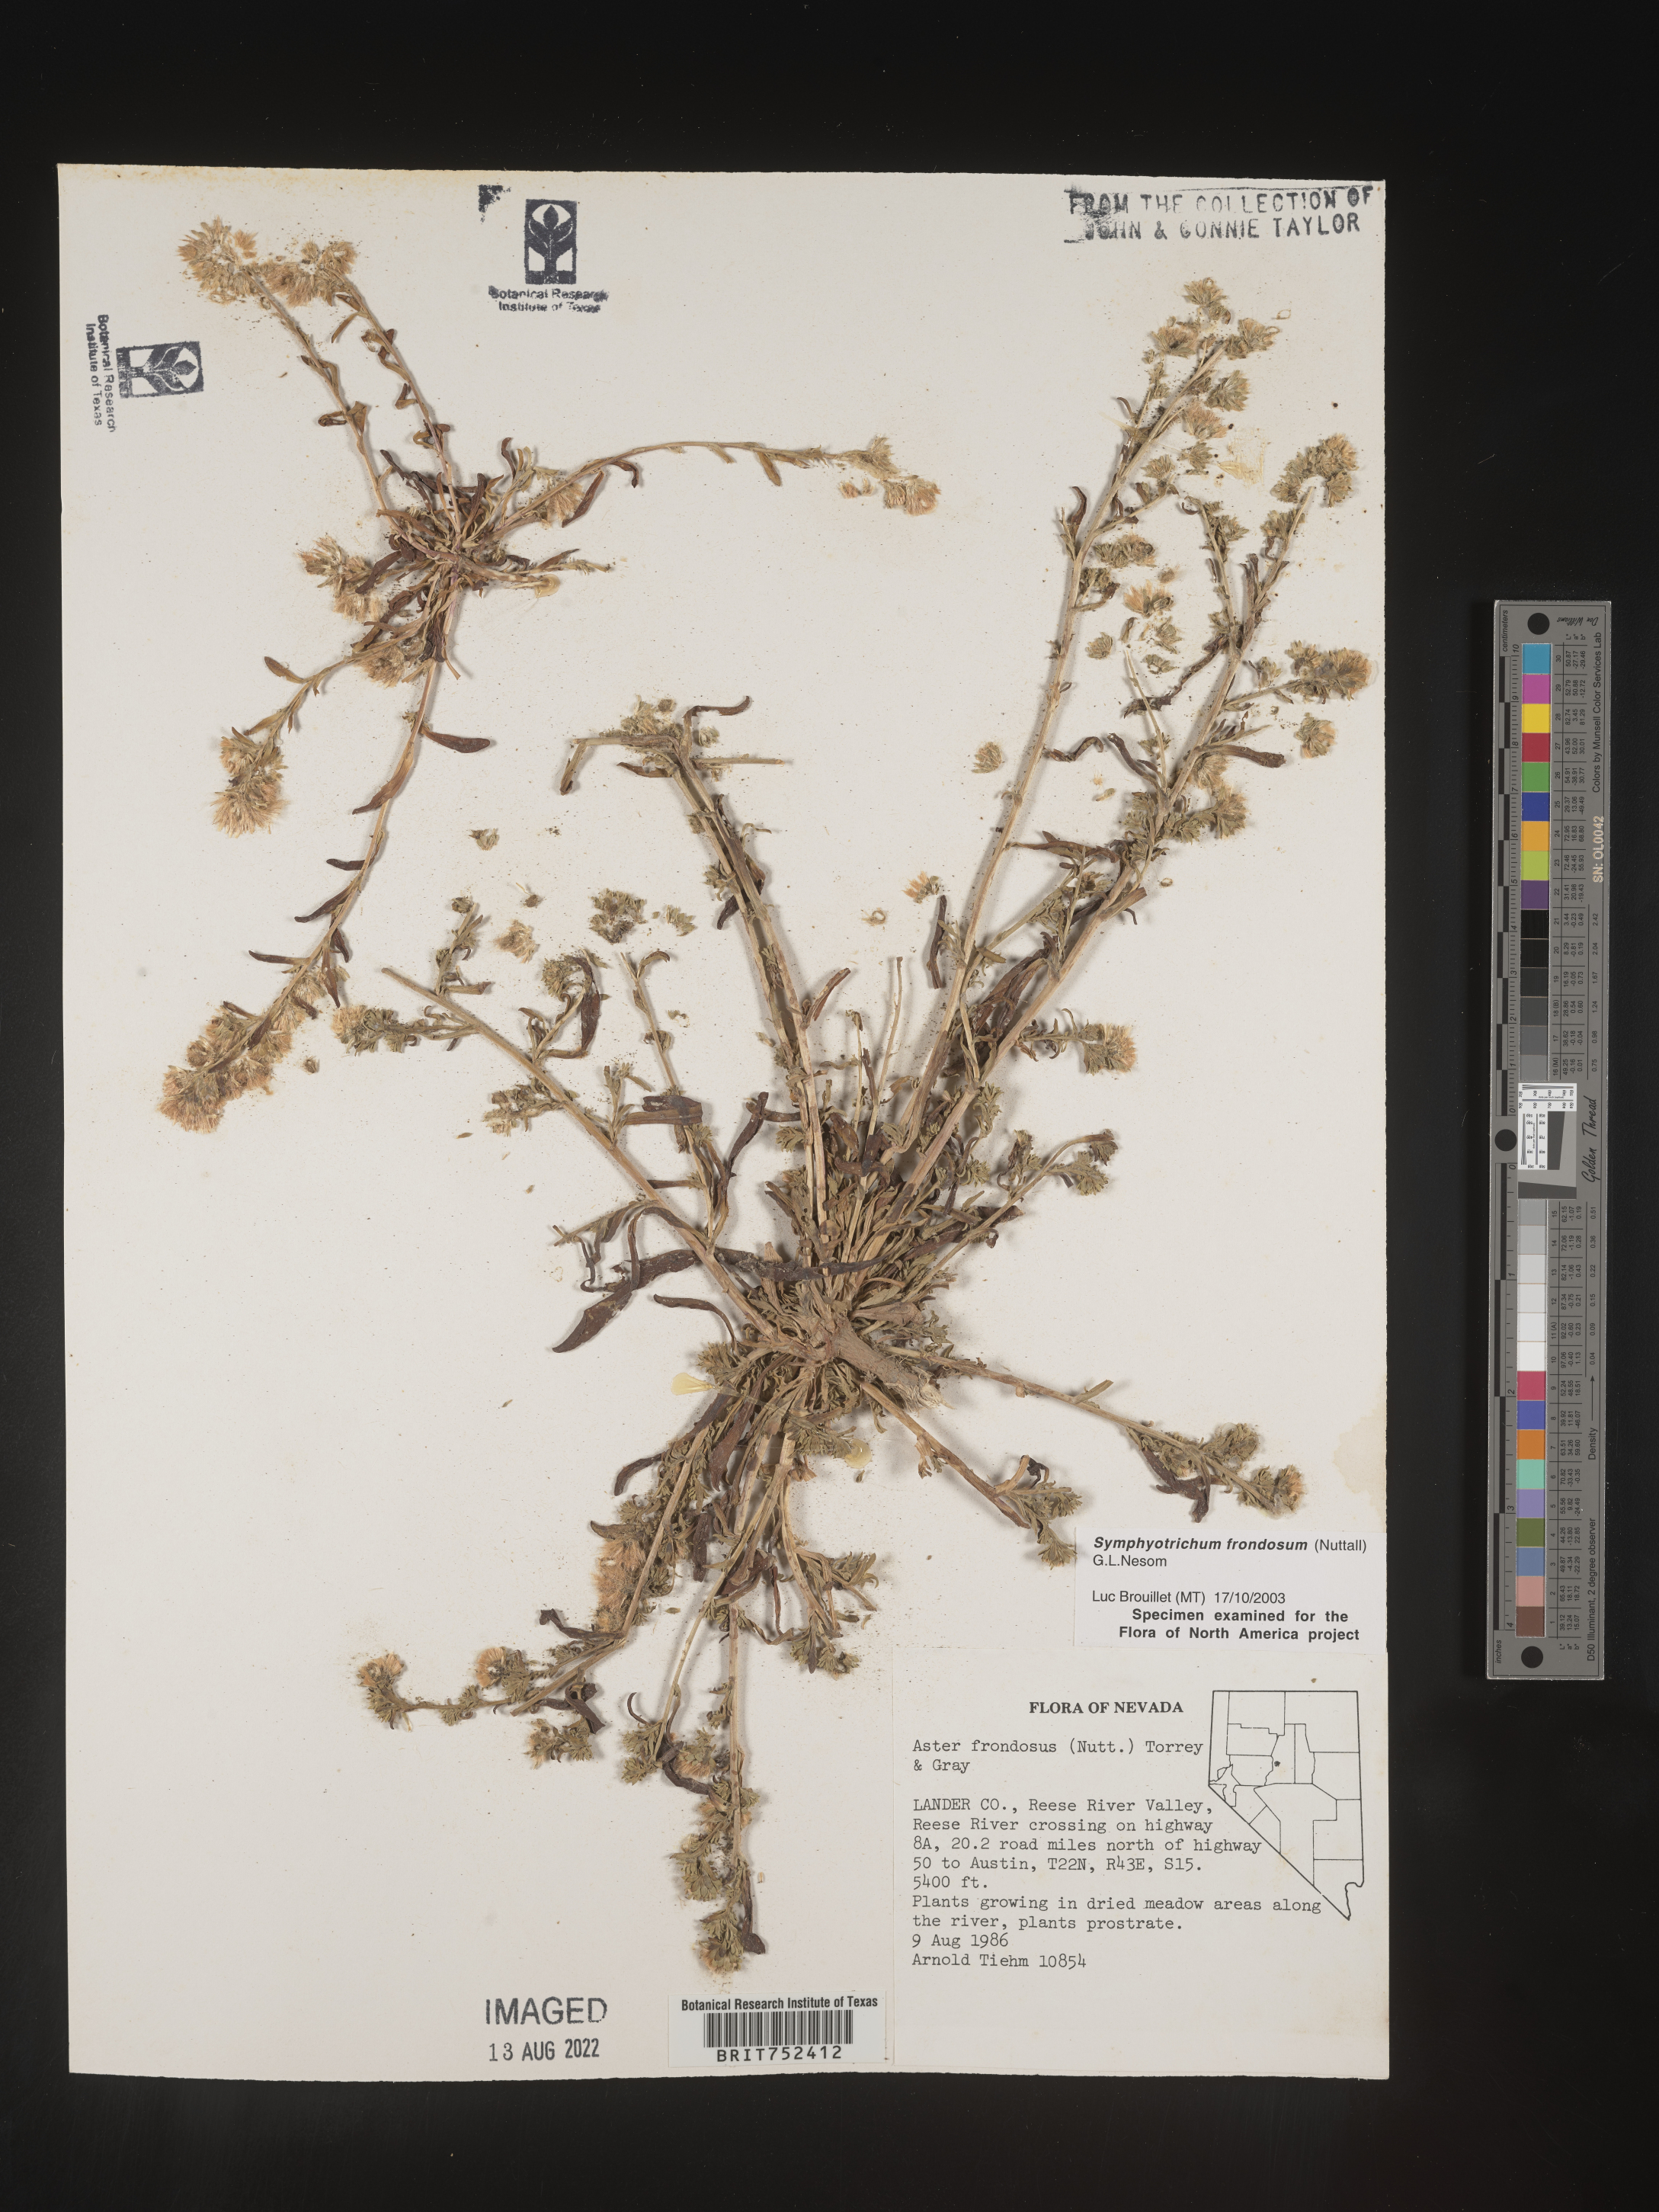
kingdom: Plantae
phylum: Tracheophyta
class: Magnoliopsida
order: Asterales
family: Asteraceae
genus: Symphyotrichum
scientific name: Symphyotrichum frondosum
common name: Leafy aster
